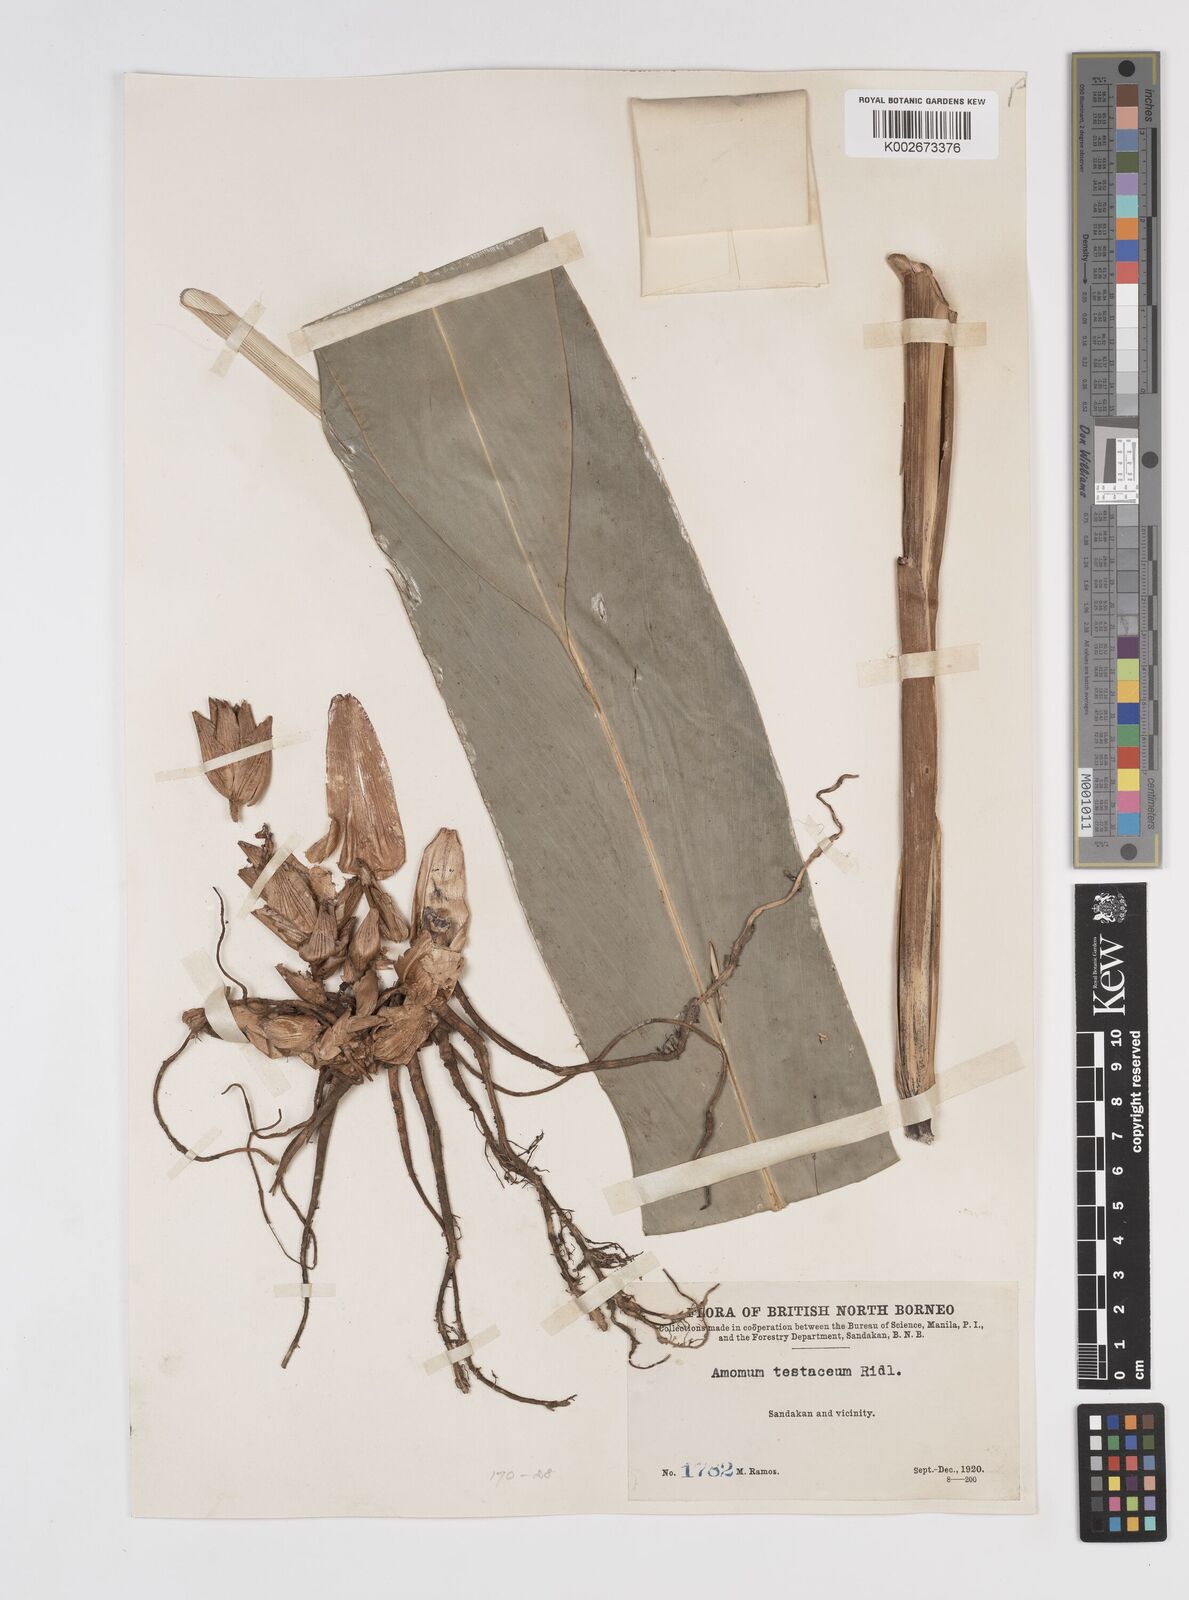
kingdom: Plantae
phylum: Tracheophyta
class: Liliopsida
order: Zingiberales
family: Zingiberaceae
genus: Wurfbainia
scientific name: Wurfbainia compacta
